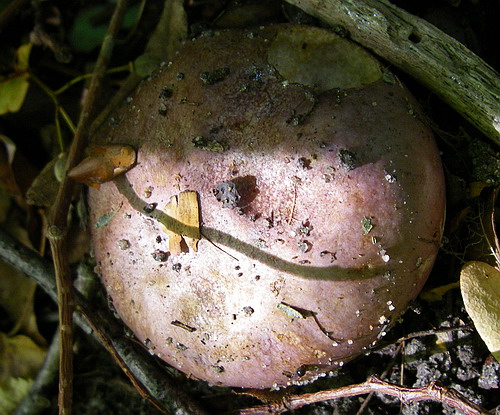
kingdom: Fungi
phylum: Basidiomycota
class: Agaricomycetes
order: Agaricales
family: Cortinariaceae
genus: Phlegmacium
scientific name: Phlegmacium balteatocumatile
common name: violettrådet slørhat
